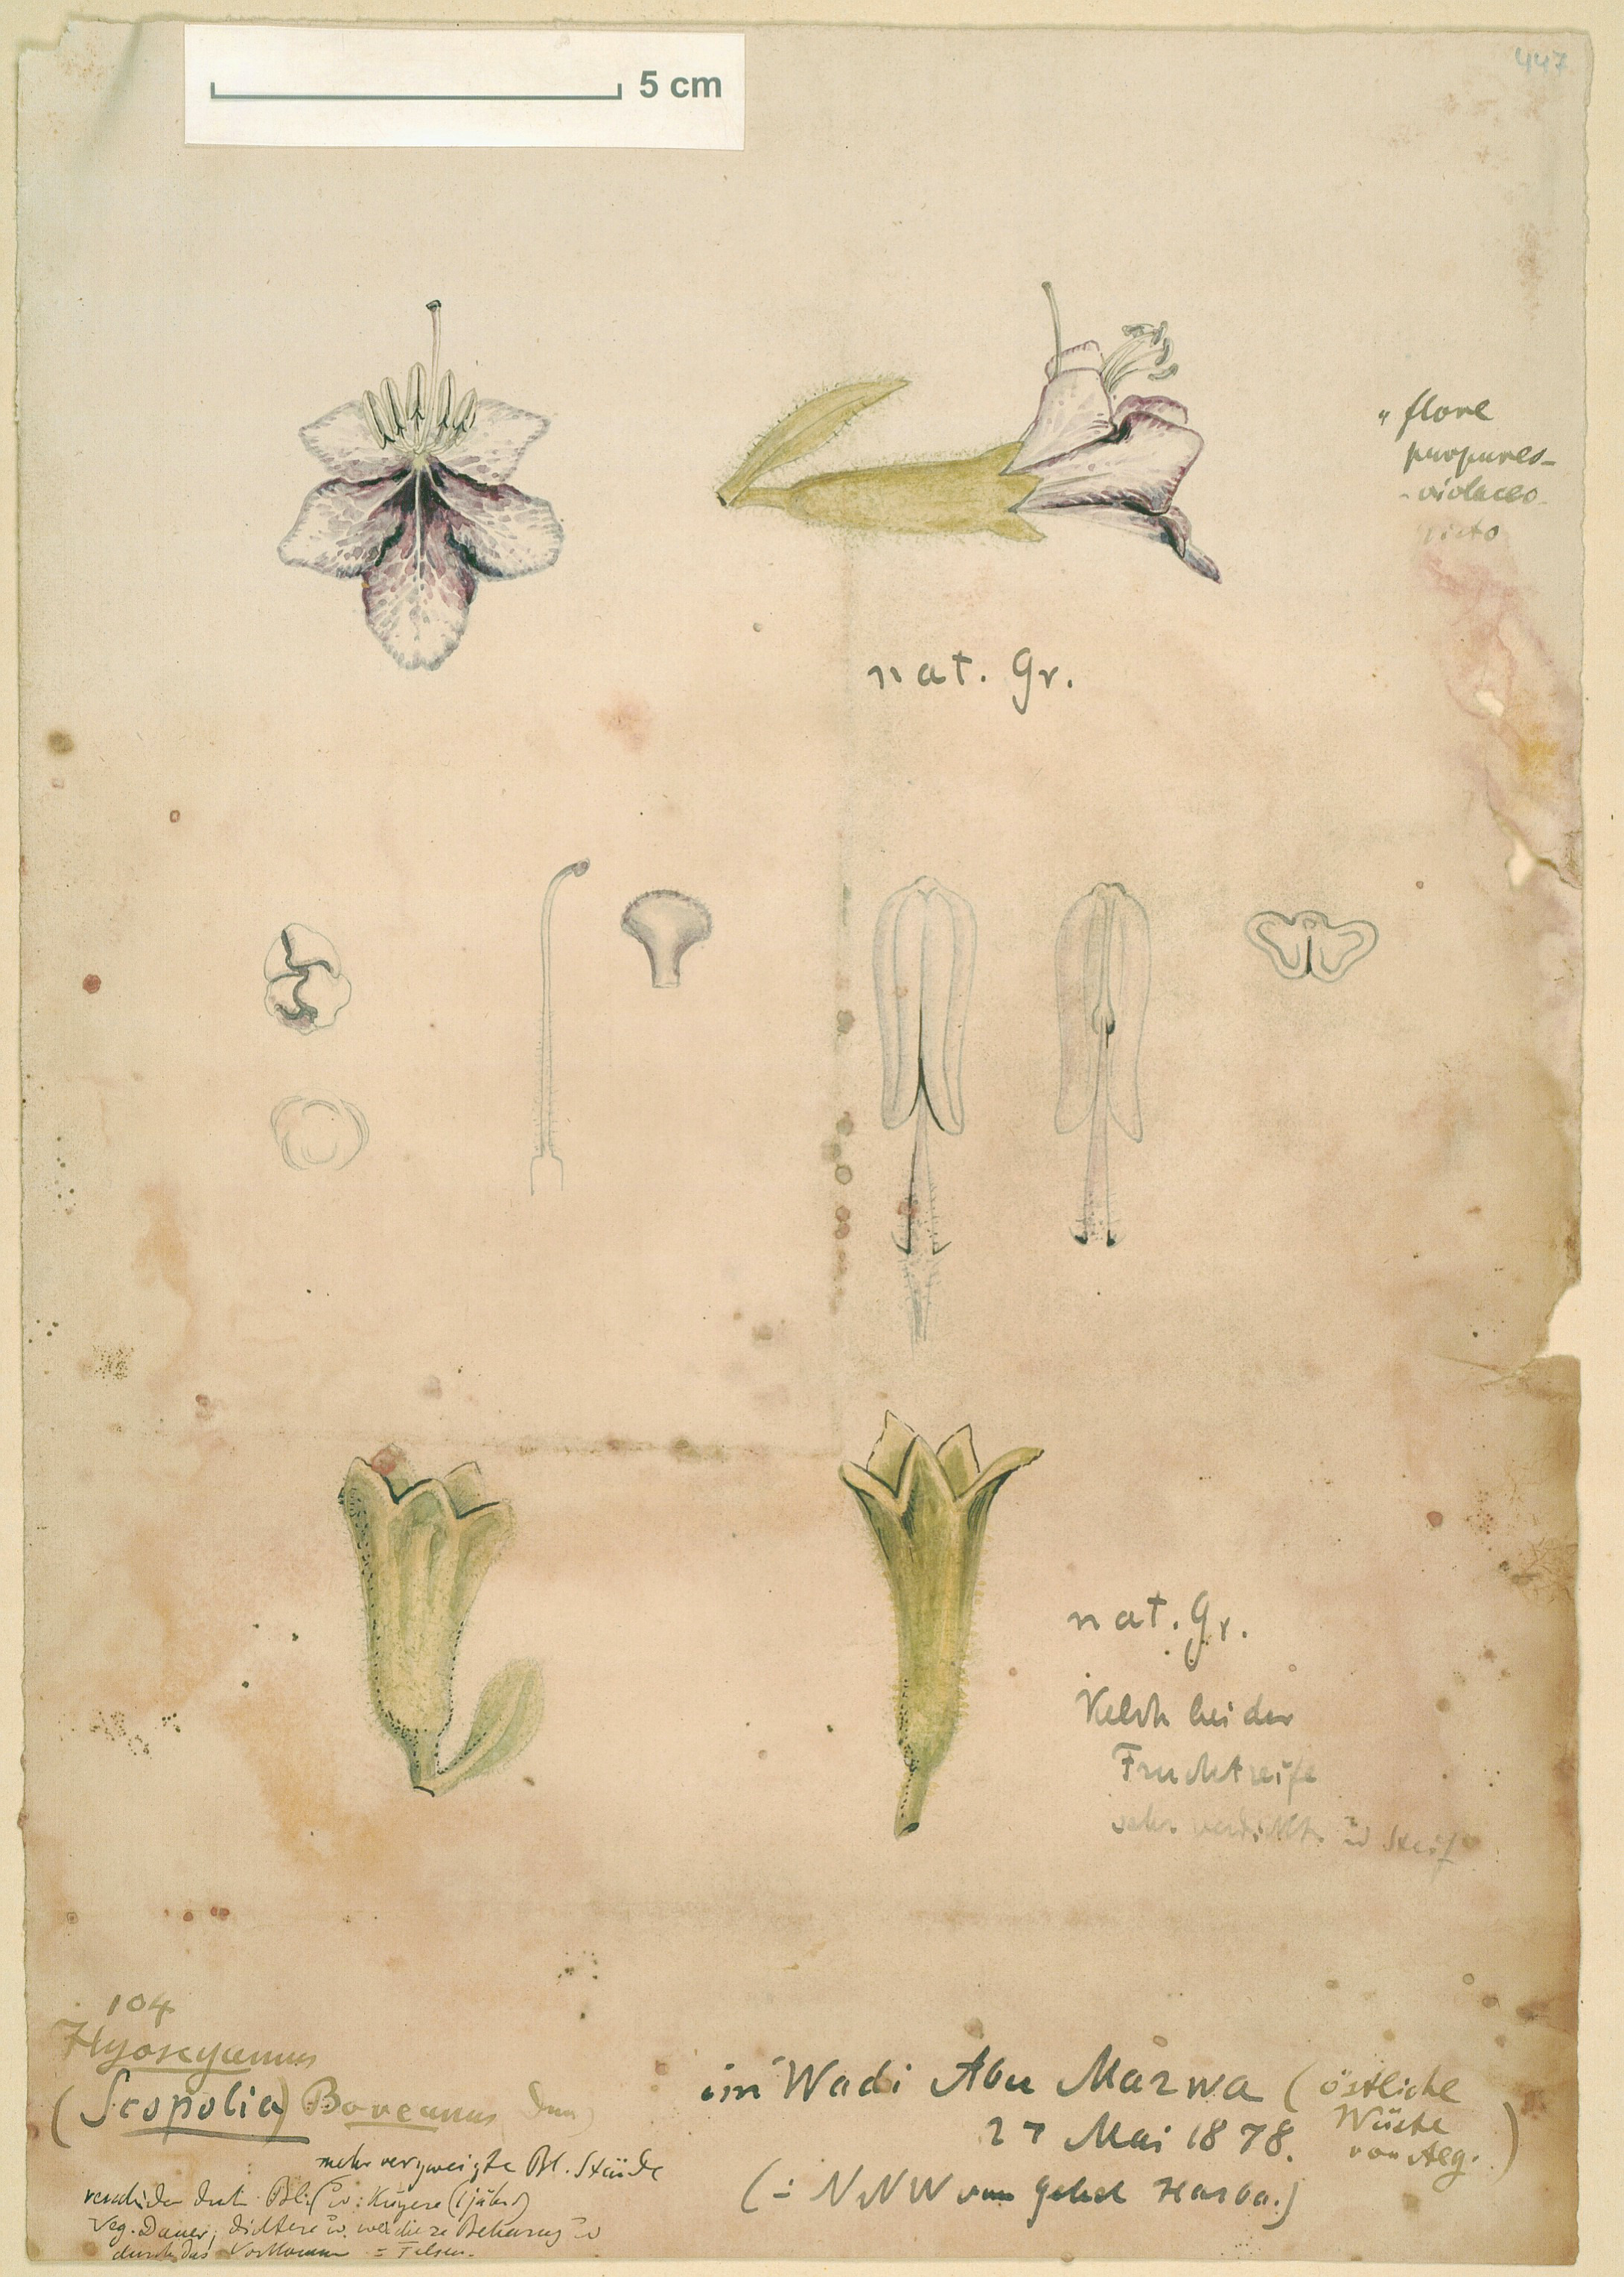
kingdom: Plantae
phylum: Tracheophyta
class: Magnoliopsida
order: Solanales
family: Solanaceae
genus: Hyoscyamus
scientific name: Hyoscyamus muticus
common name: Henbane
